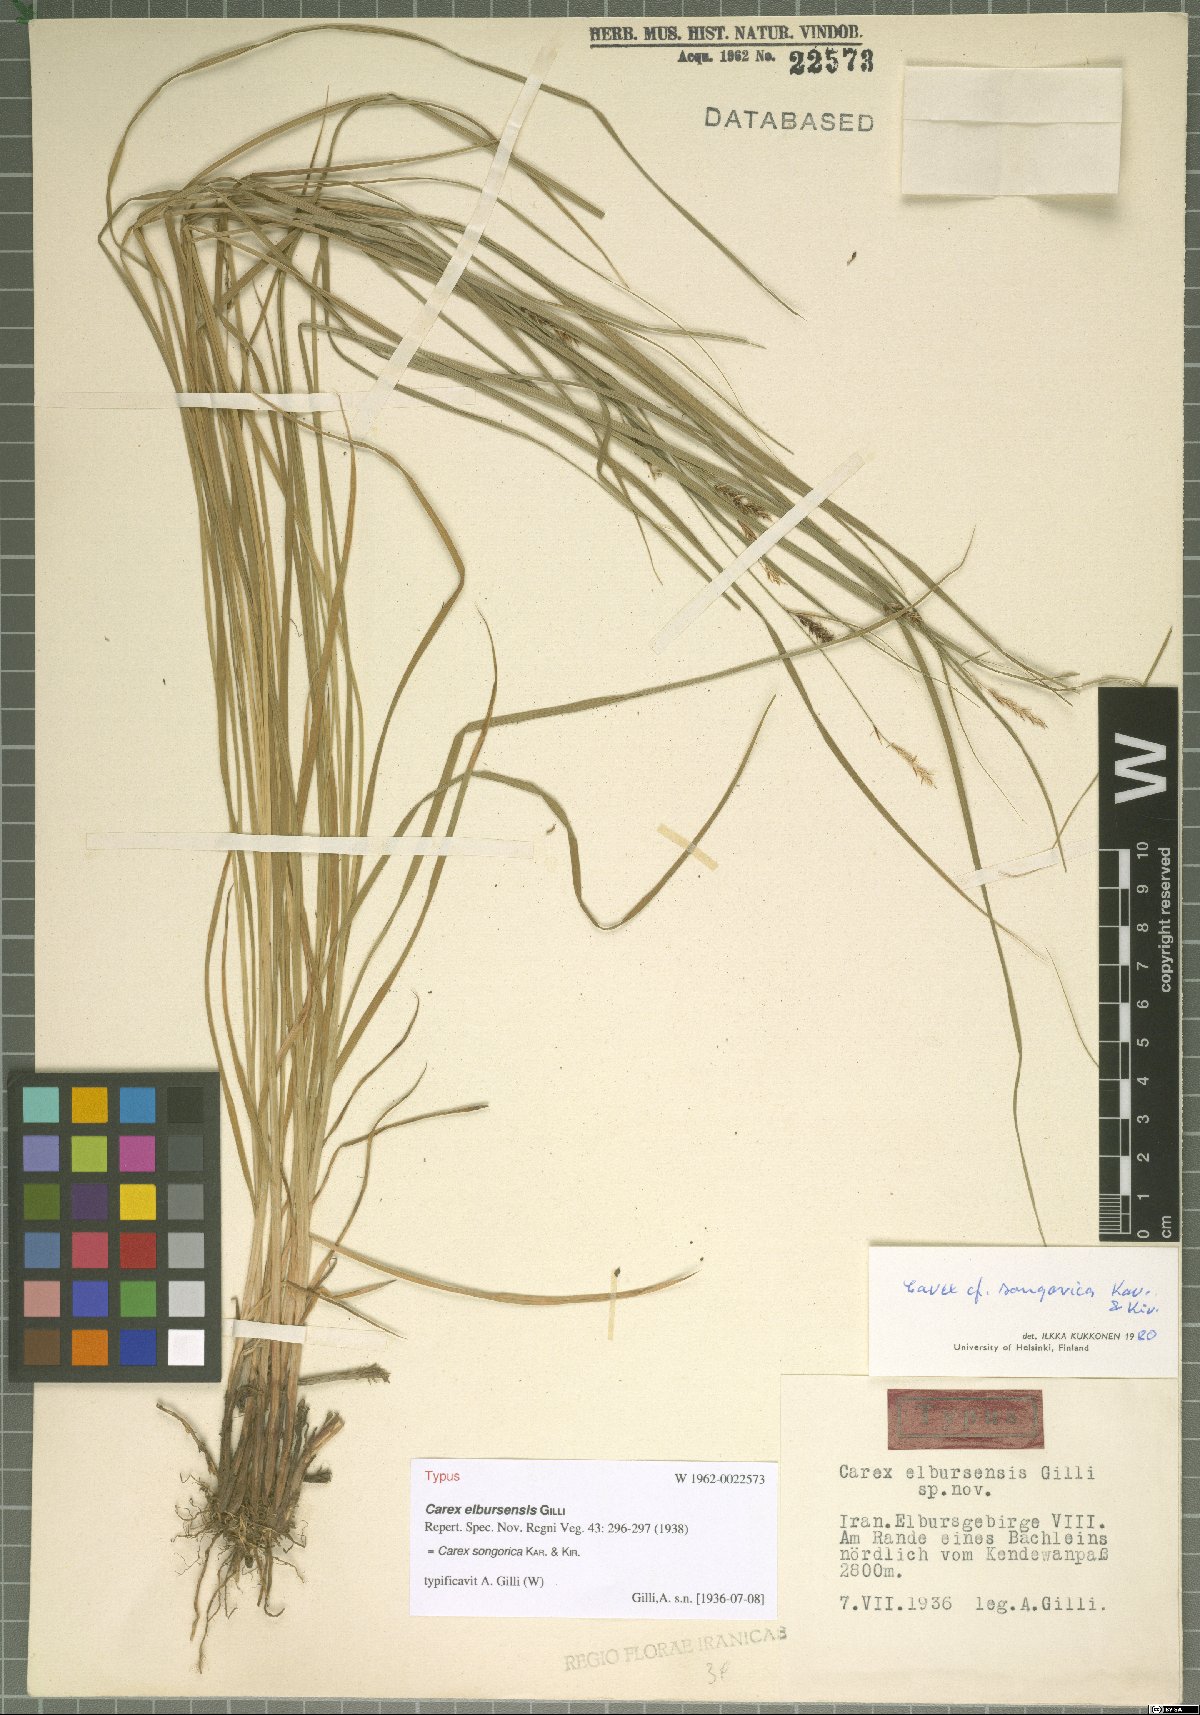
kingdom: Plantae
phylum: Tracheophyta
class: Liliopsida
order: Poales
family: Cyperaceae
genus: Carex
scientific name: Carex songorica
